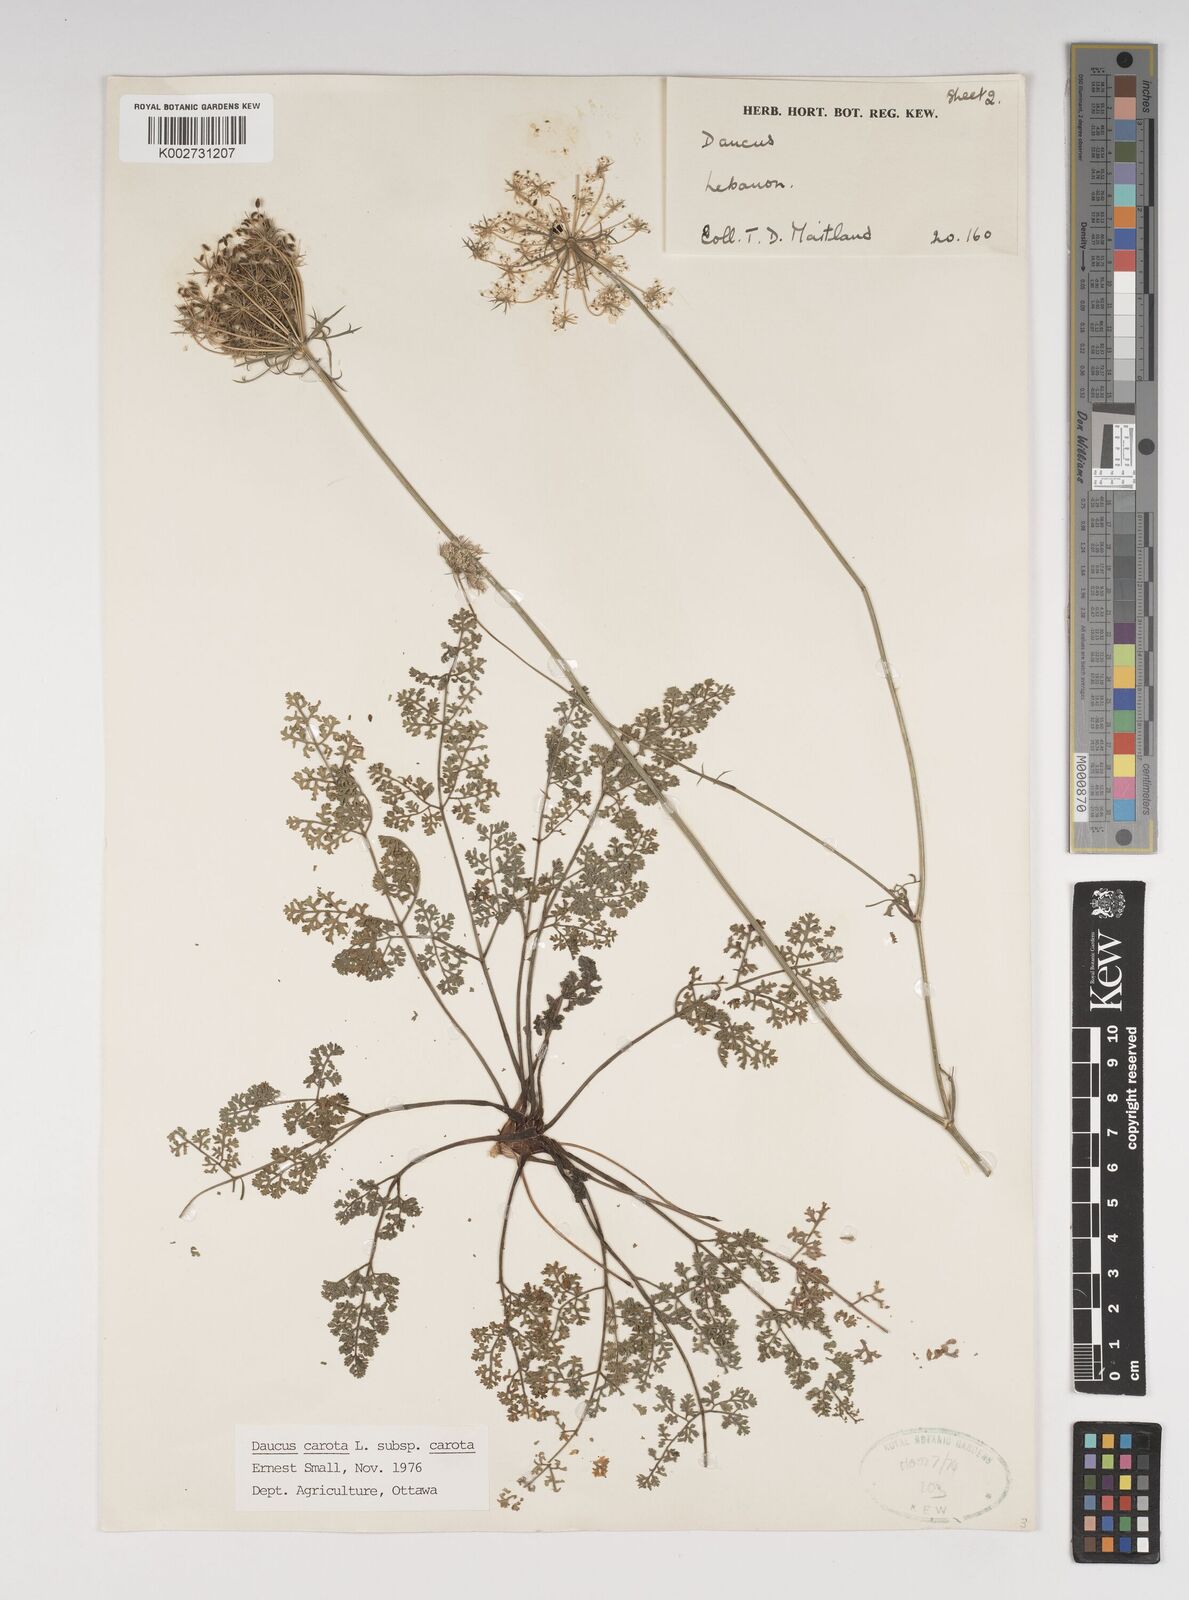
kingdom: Plantae
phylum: Tracheophyta
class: Magnoliopsida
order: Apiales
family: Apiaceae
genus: Daucus
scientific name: Daucus carota
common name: Wild carrot
